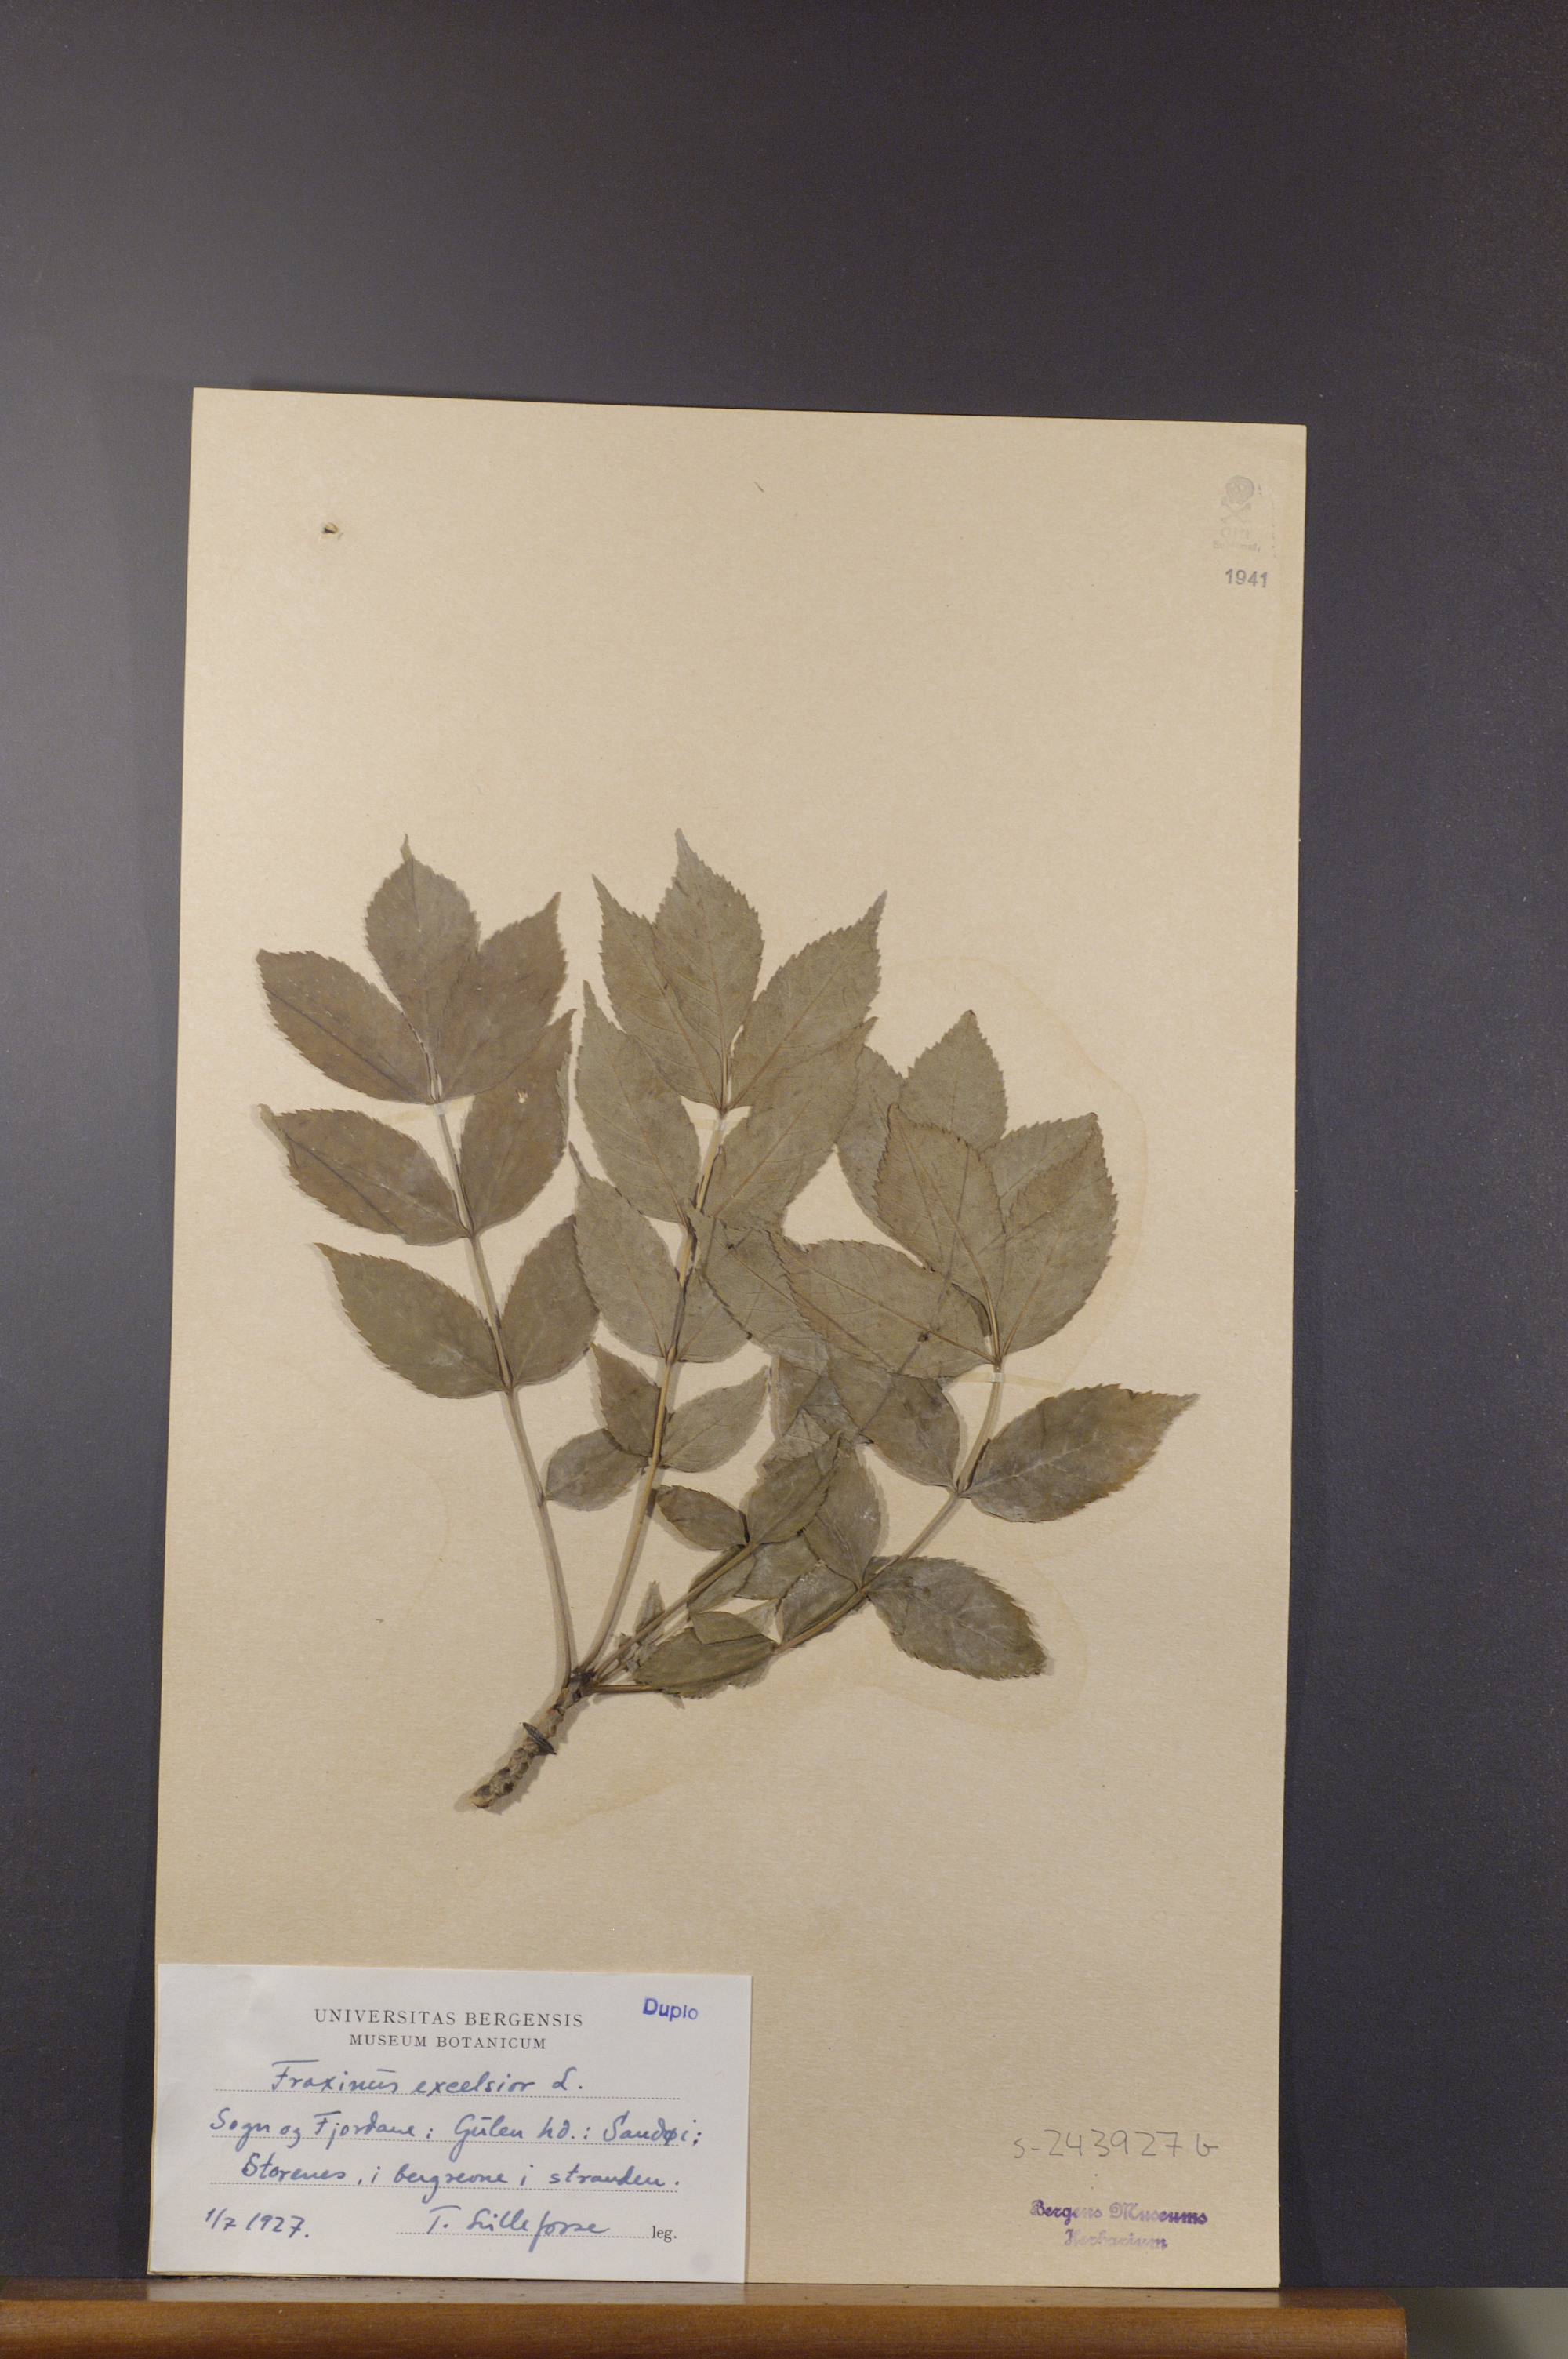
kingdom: Plantae
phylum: Tracheophyta
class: Magnoliopsida
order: Lamiales
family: Oleaceae
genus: Fraxinus
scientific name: Fraxinus excelsior
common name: European ash
